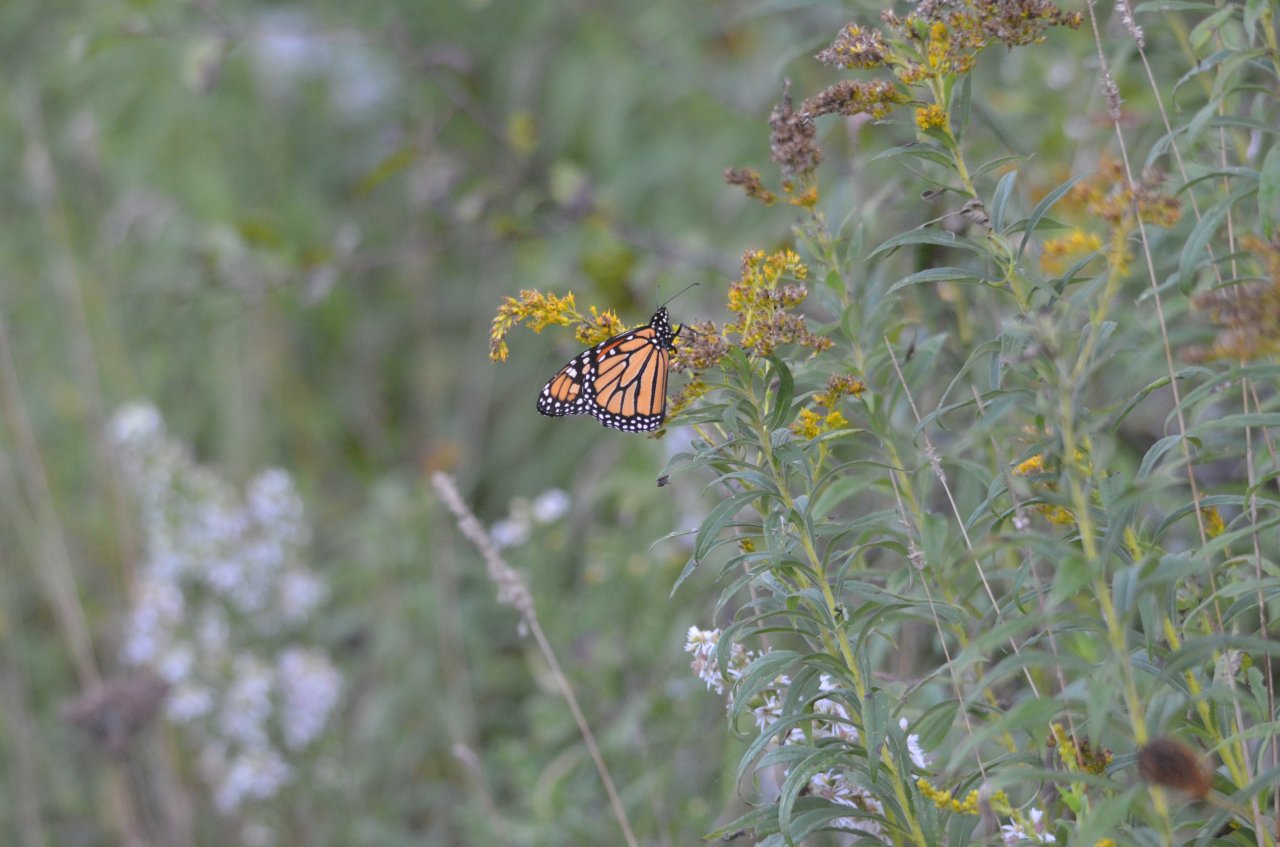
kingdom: Animalia
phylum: Arthropoda
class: Insecta
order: Lepidoptera
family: Nymphalidae
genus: Danaus
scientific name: Danaus plexippus
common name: Monarch
